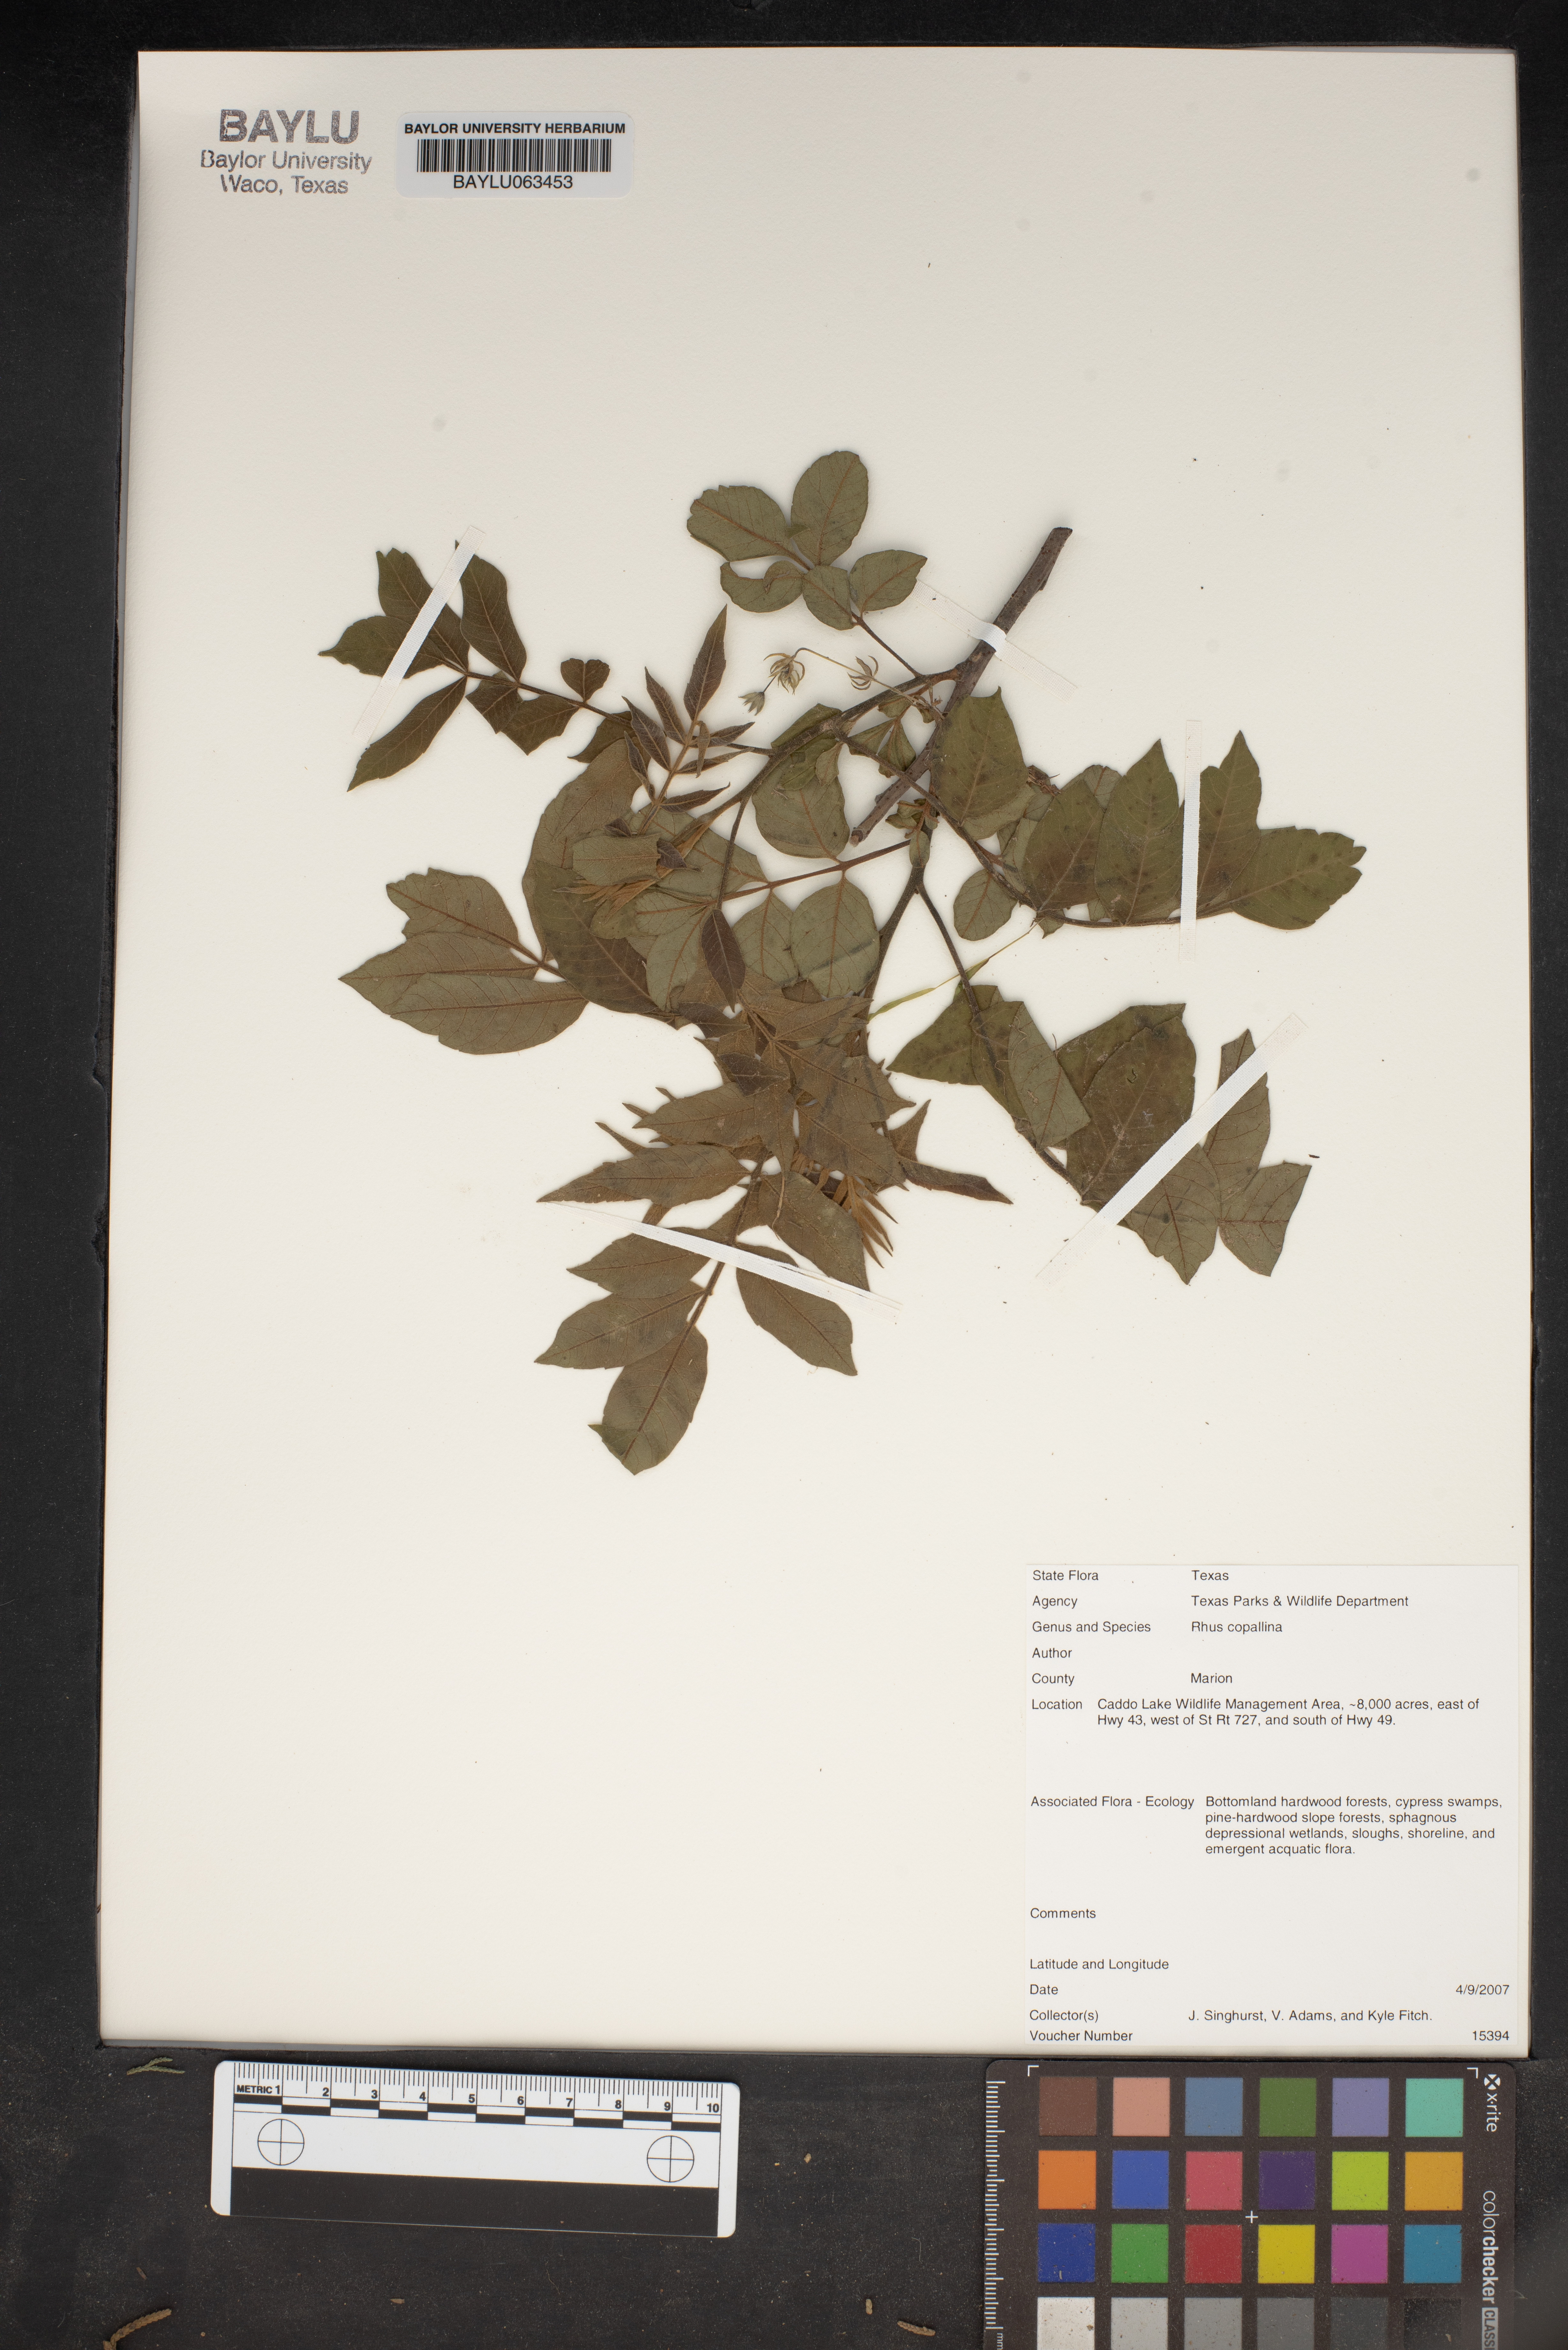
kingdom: Plantae
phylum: Tracheophyta
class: Magnoliopsida
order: Sapindales
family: Anacardiaceae
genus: Rhus
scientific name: Rhus copallina
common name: Shining sumac
